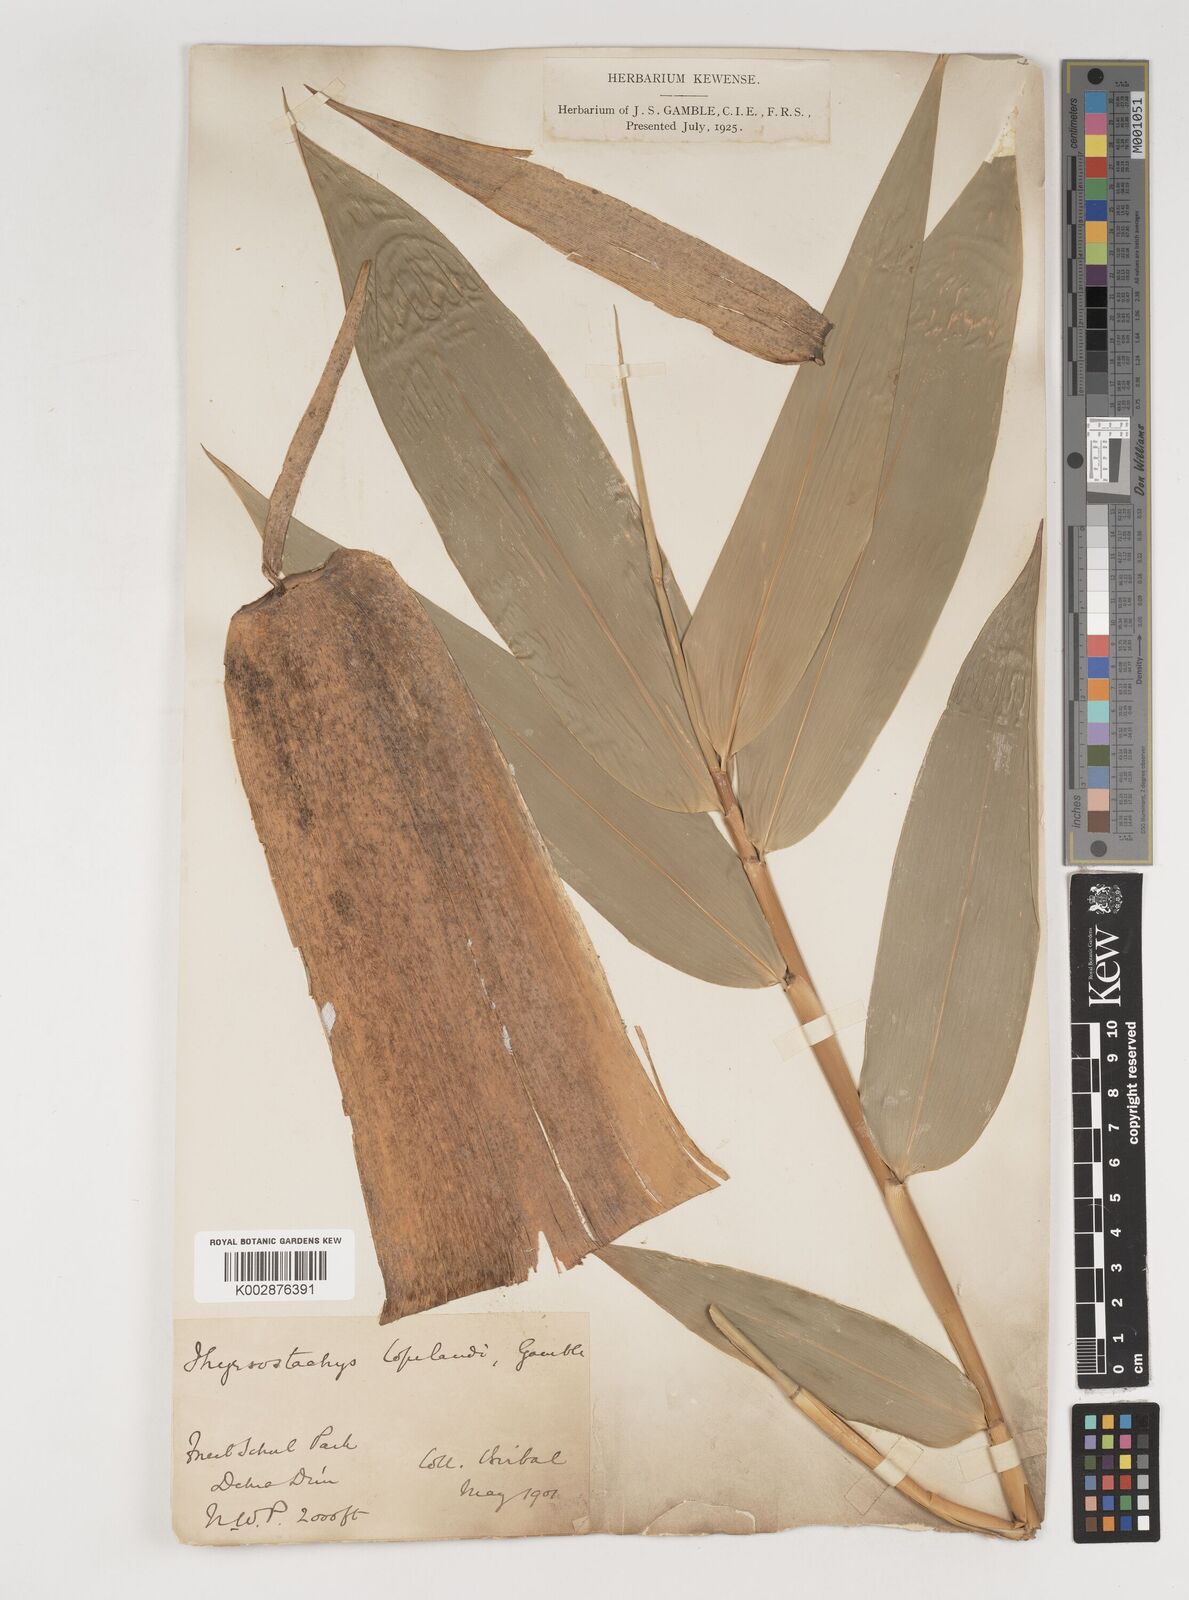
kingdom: Plantae
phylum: Tracheophyta
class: Liliopsida
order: Poales
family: Poaceae
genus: Bambusa
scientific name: Bambusa copelandii
